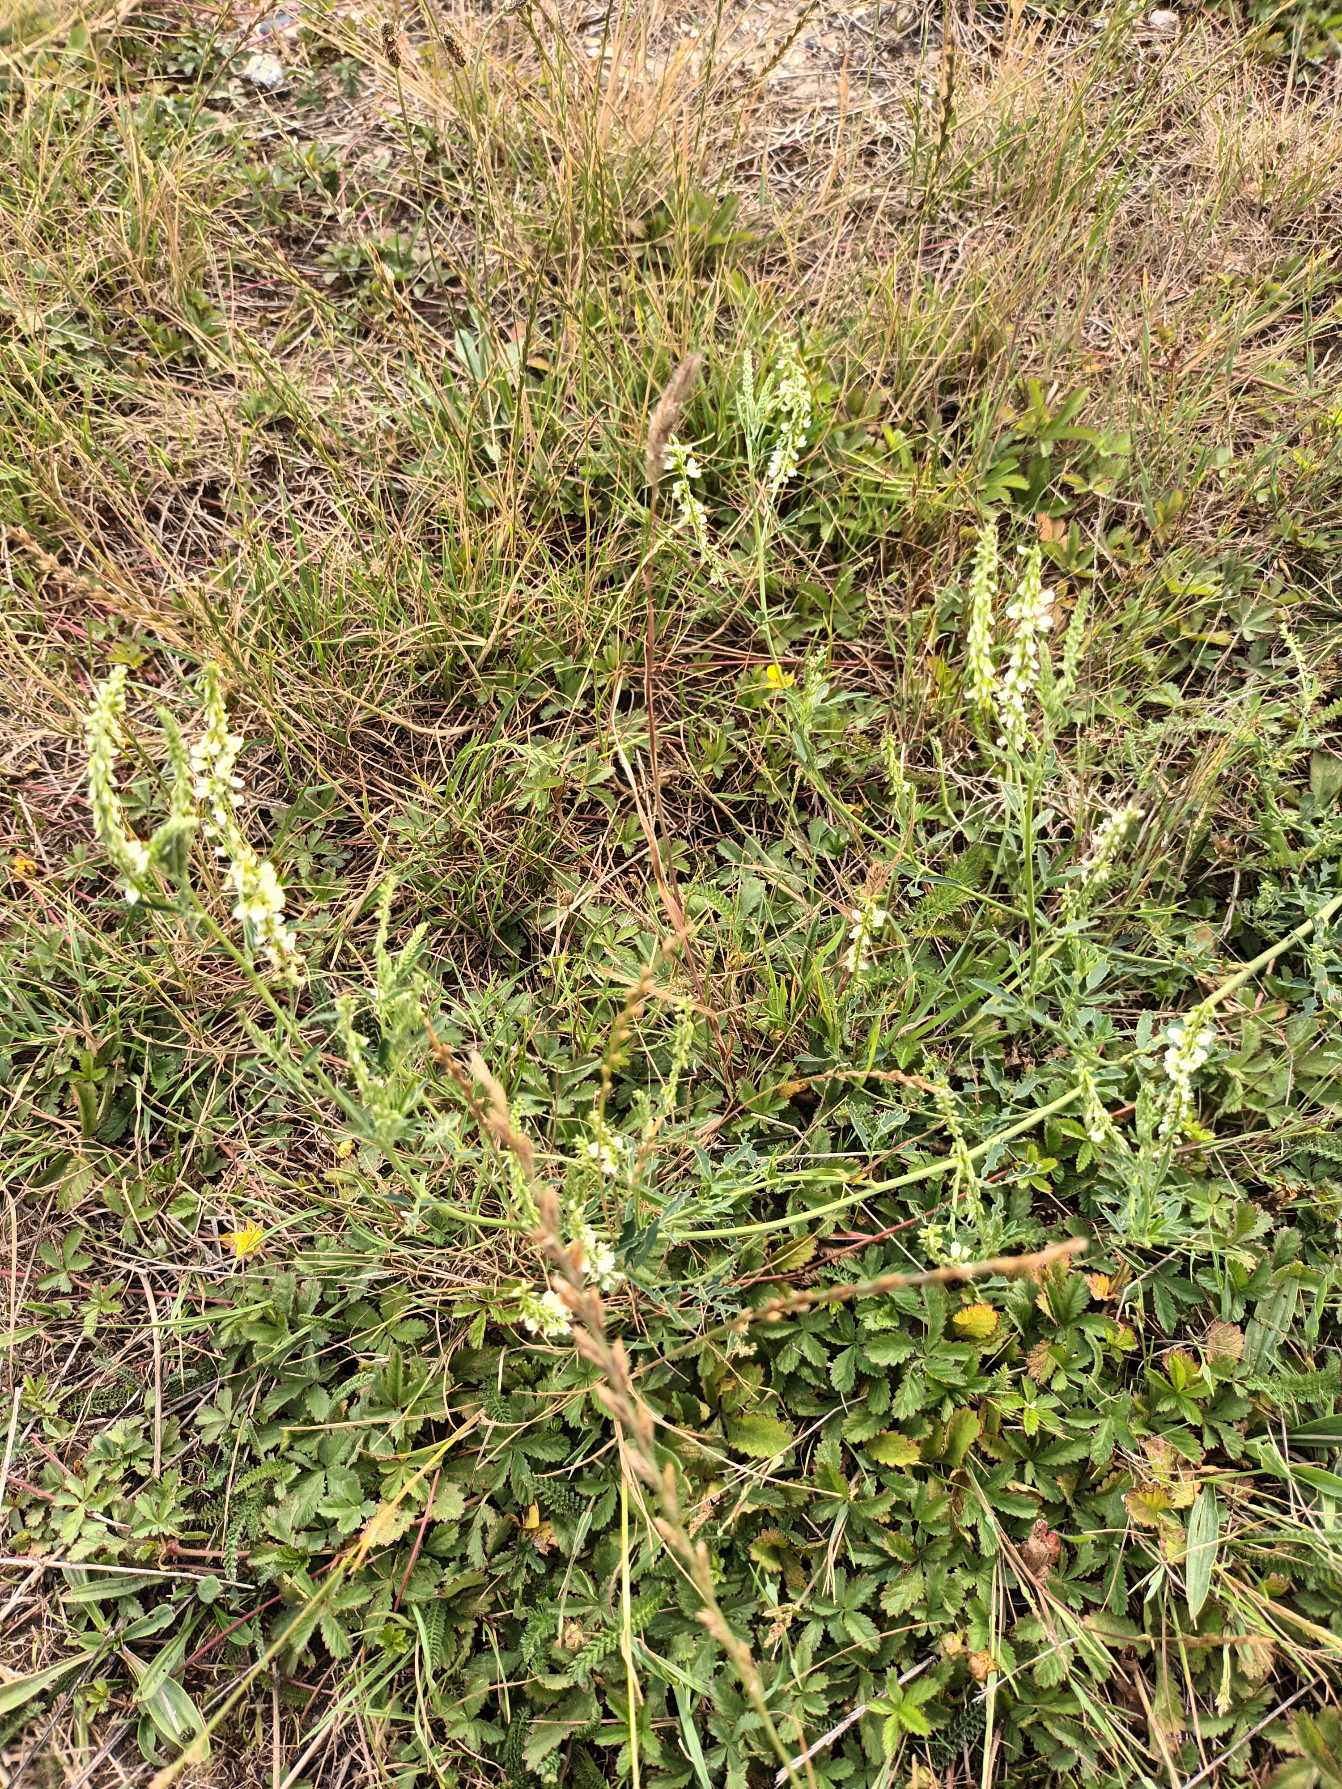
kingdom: Plantae
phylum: Tracheophyta
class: Magnoliopsida
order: Fabales
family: Fabaceae
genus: Melilotus
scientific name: Melilotus albus
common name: Hvid stenkløver
